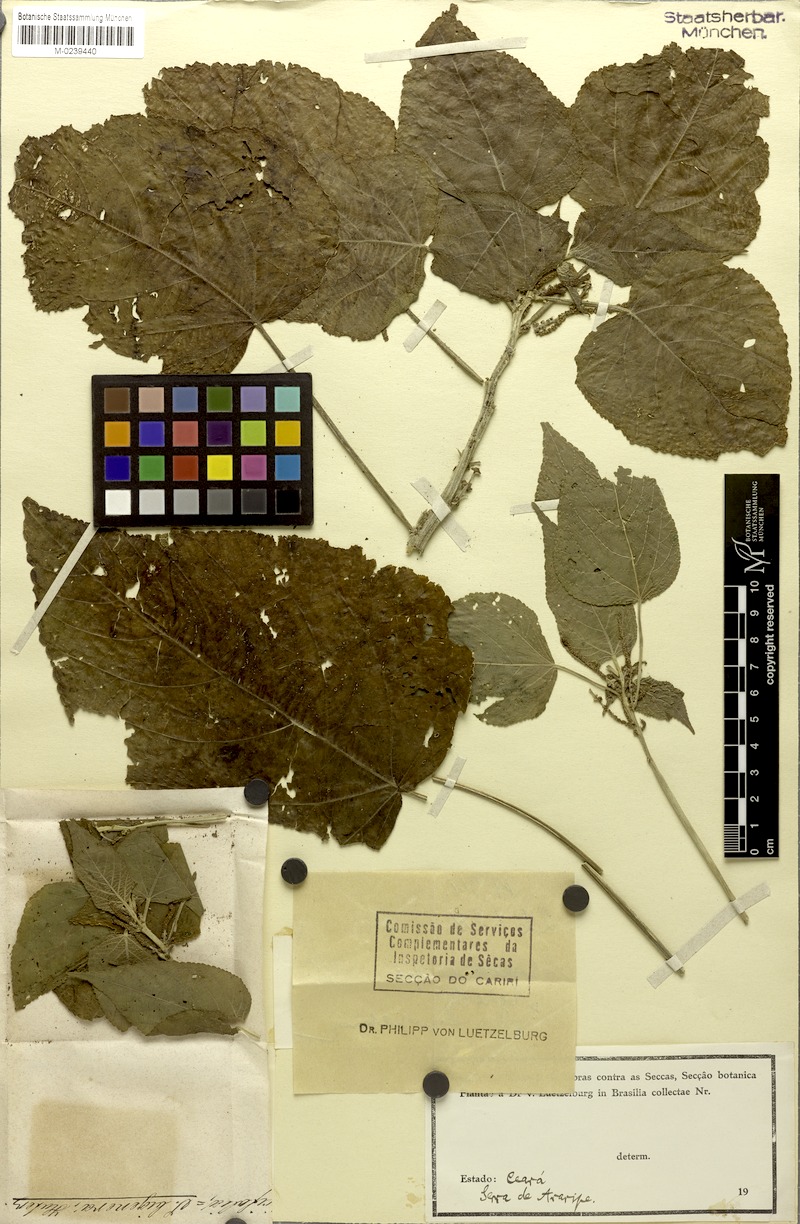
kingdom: Plantae
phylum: Tracheophyta
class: Magnoliopsida
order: Malpighiales
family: Euphorbiaceae
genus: Acalypha
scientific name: Acalypha fragilis
